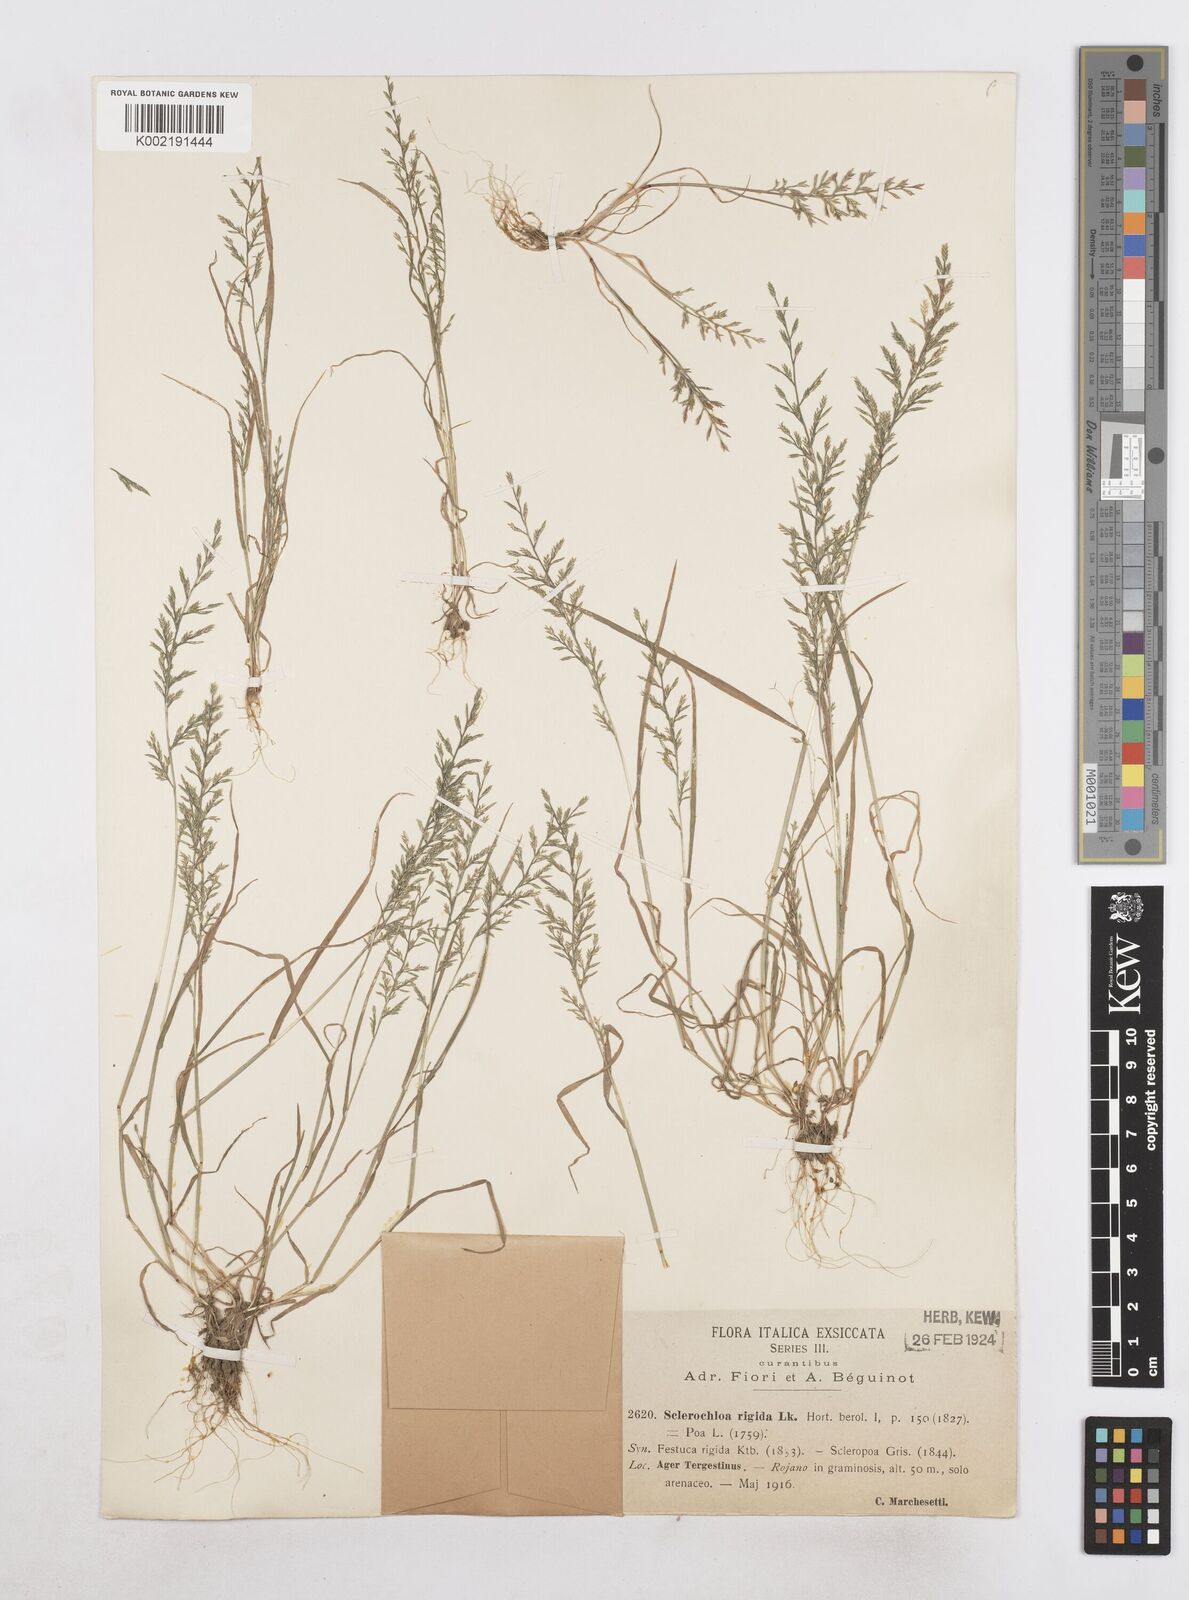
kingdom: Plantae
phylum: Tracheophyta
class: Liliopsida
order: Poales
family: Poaceae
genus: Catapodium
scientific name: Catapodium rigidum
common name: Fern-grass
